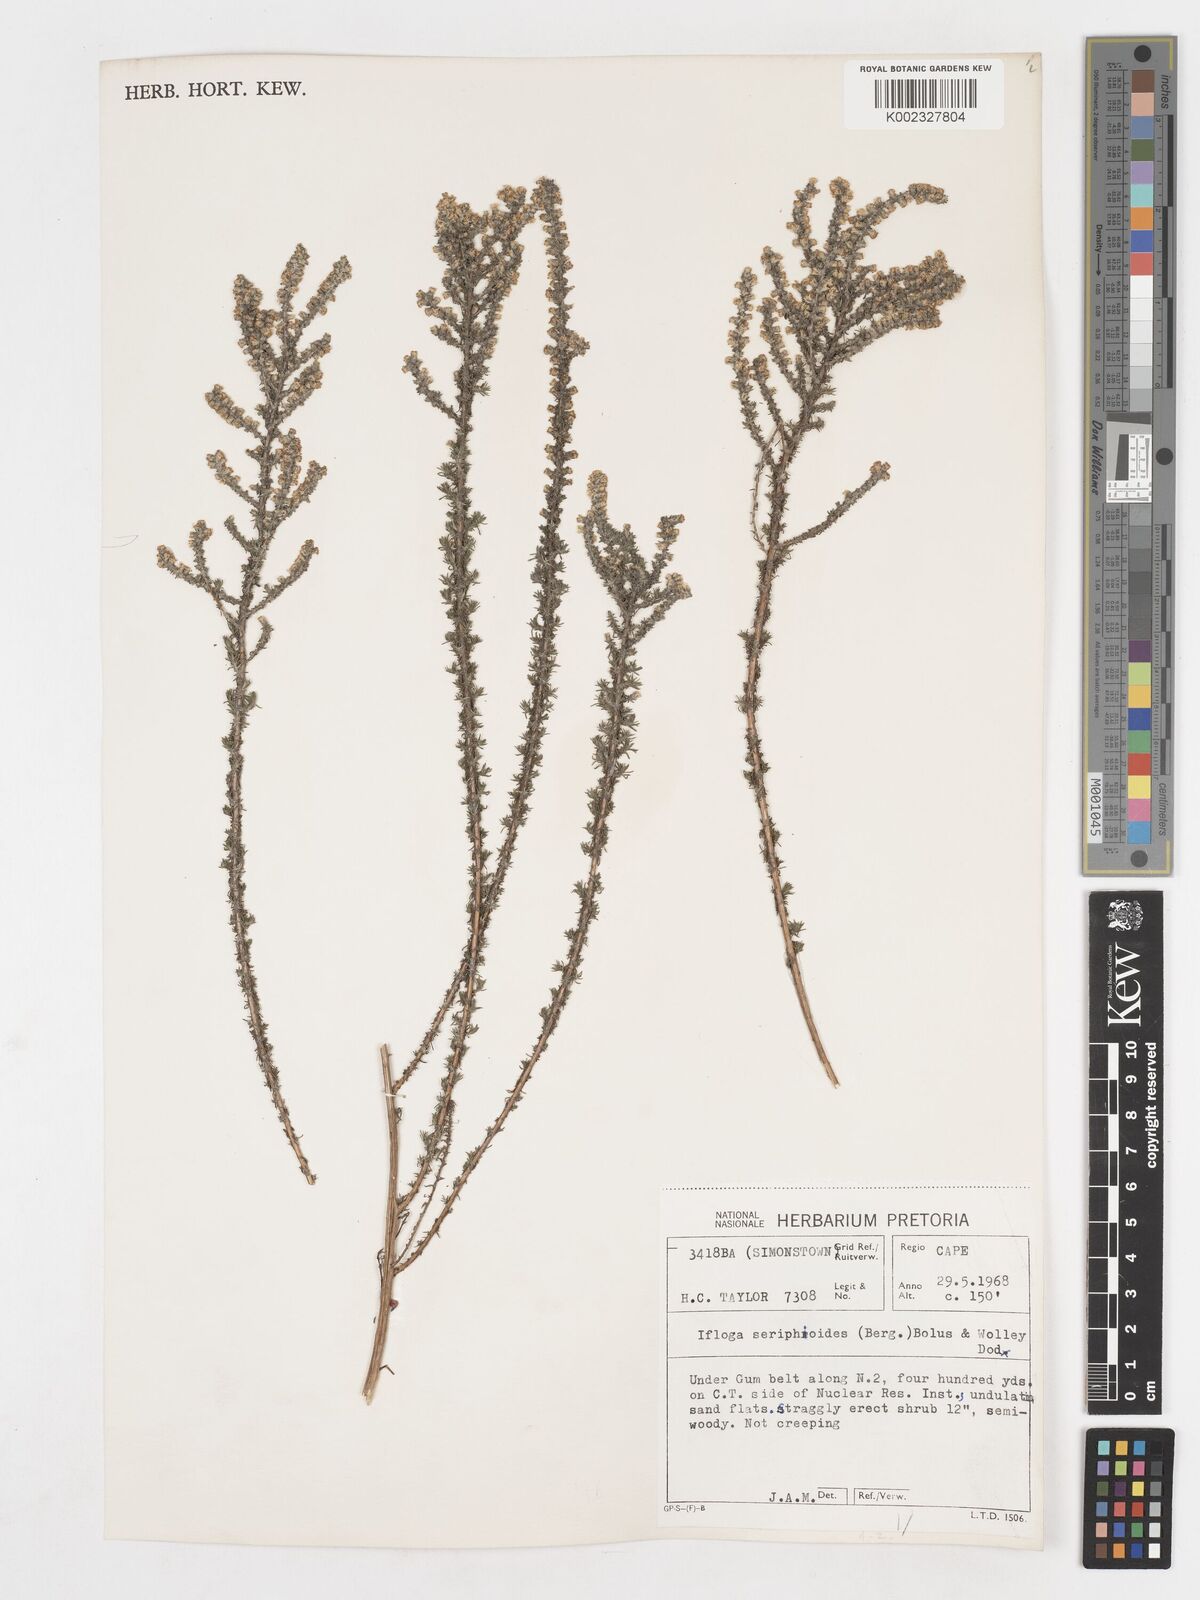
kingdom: Plantae
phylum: Tracheophyta
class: Magnoliopsida
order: Asterales
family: Asteraceae
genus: Ifloga
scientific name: Ifloga ambigua
